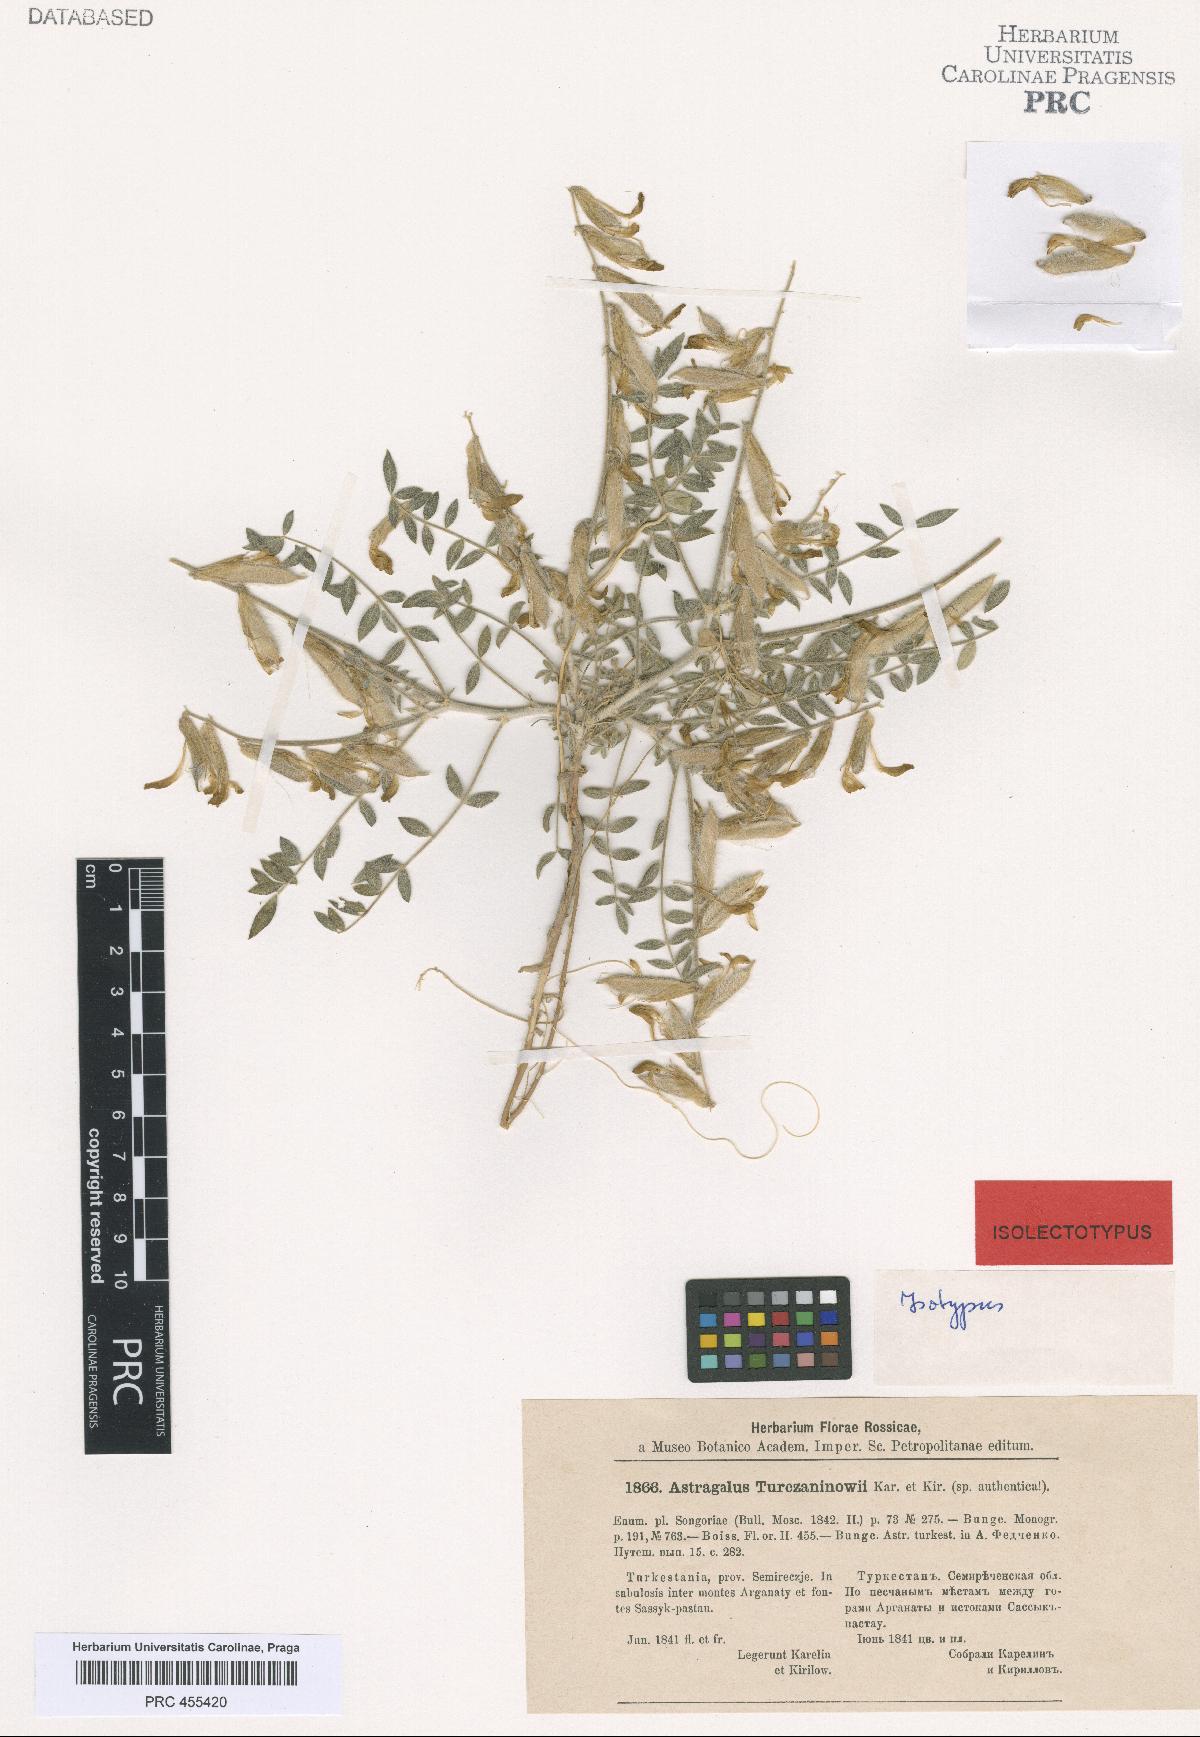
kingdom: Plantae
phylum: Tracheophyta
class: Magnoliopsida
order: Fabales
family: Fabaceae
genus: Astragalus
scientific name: Astragalus turczaninovii
